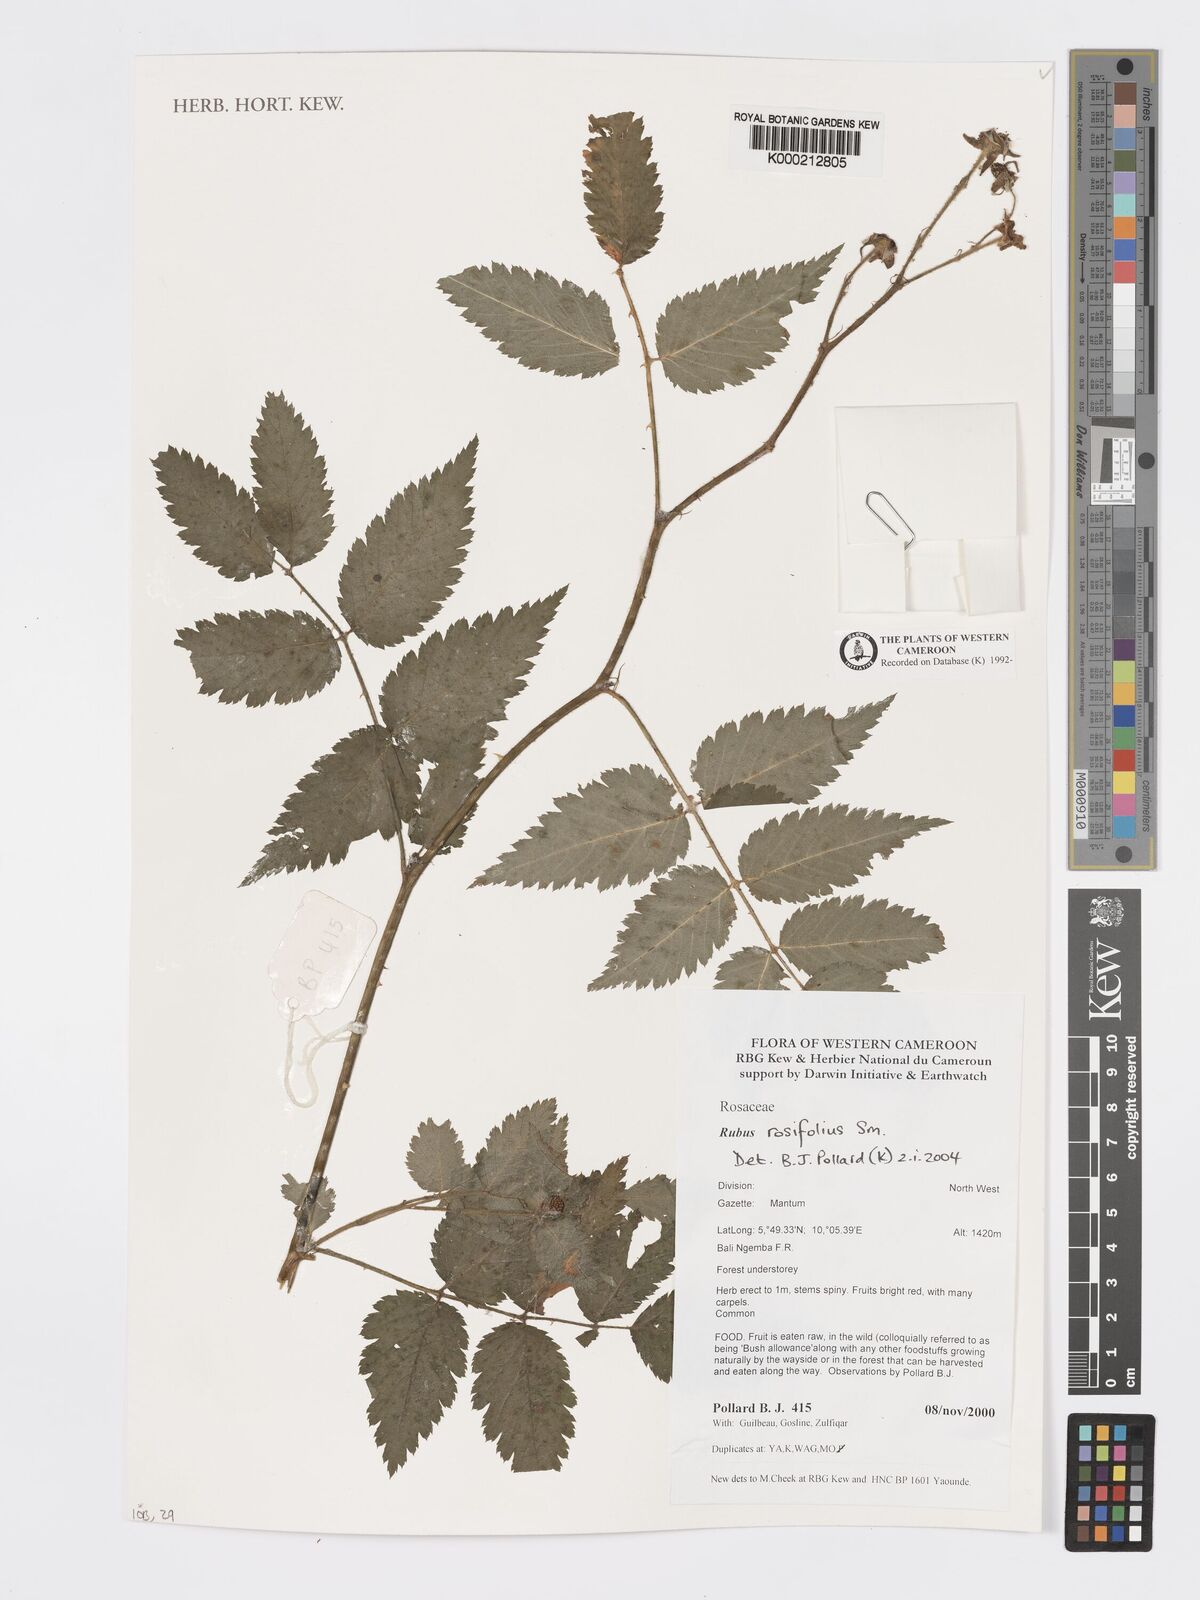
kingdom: Plantae
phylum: Tracheophyta
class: Magnoliopsida
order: Rosales
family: Rosaceae
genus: Rubus
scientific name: Rubus rosifolius
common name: Roseleaf raspberry
